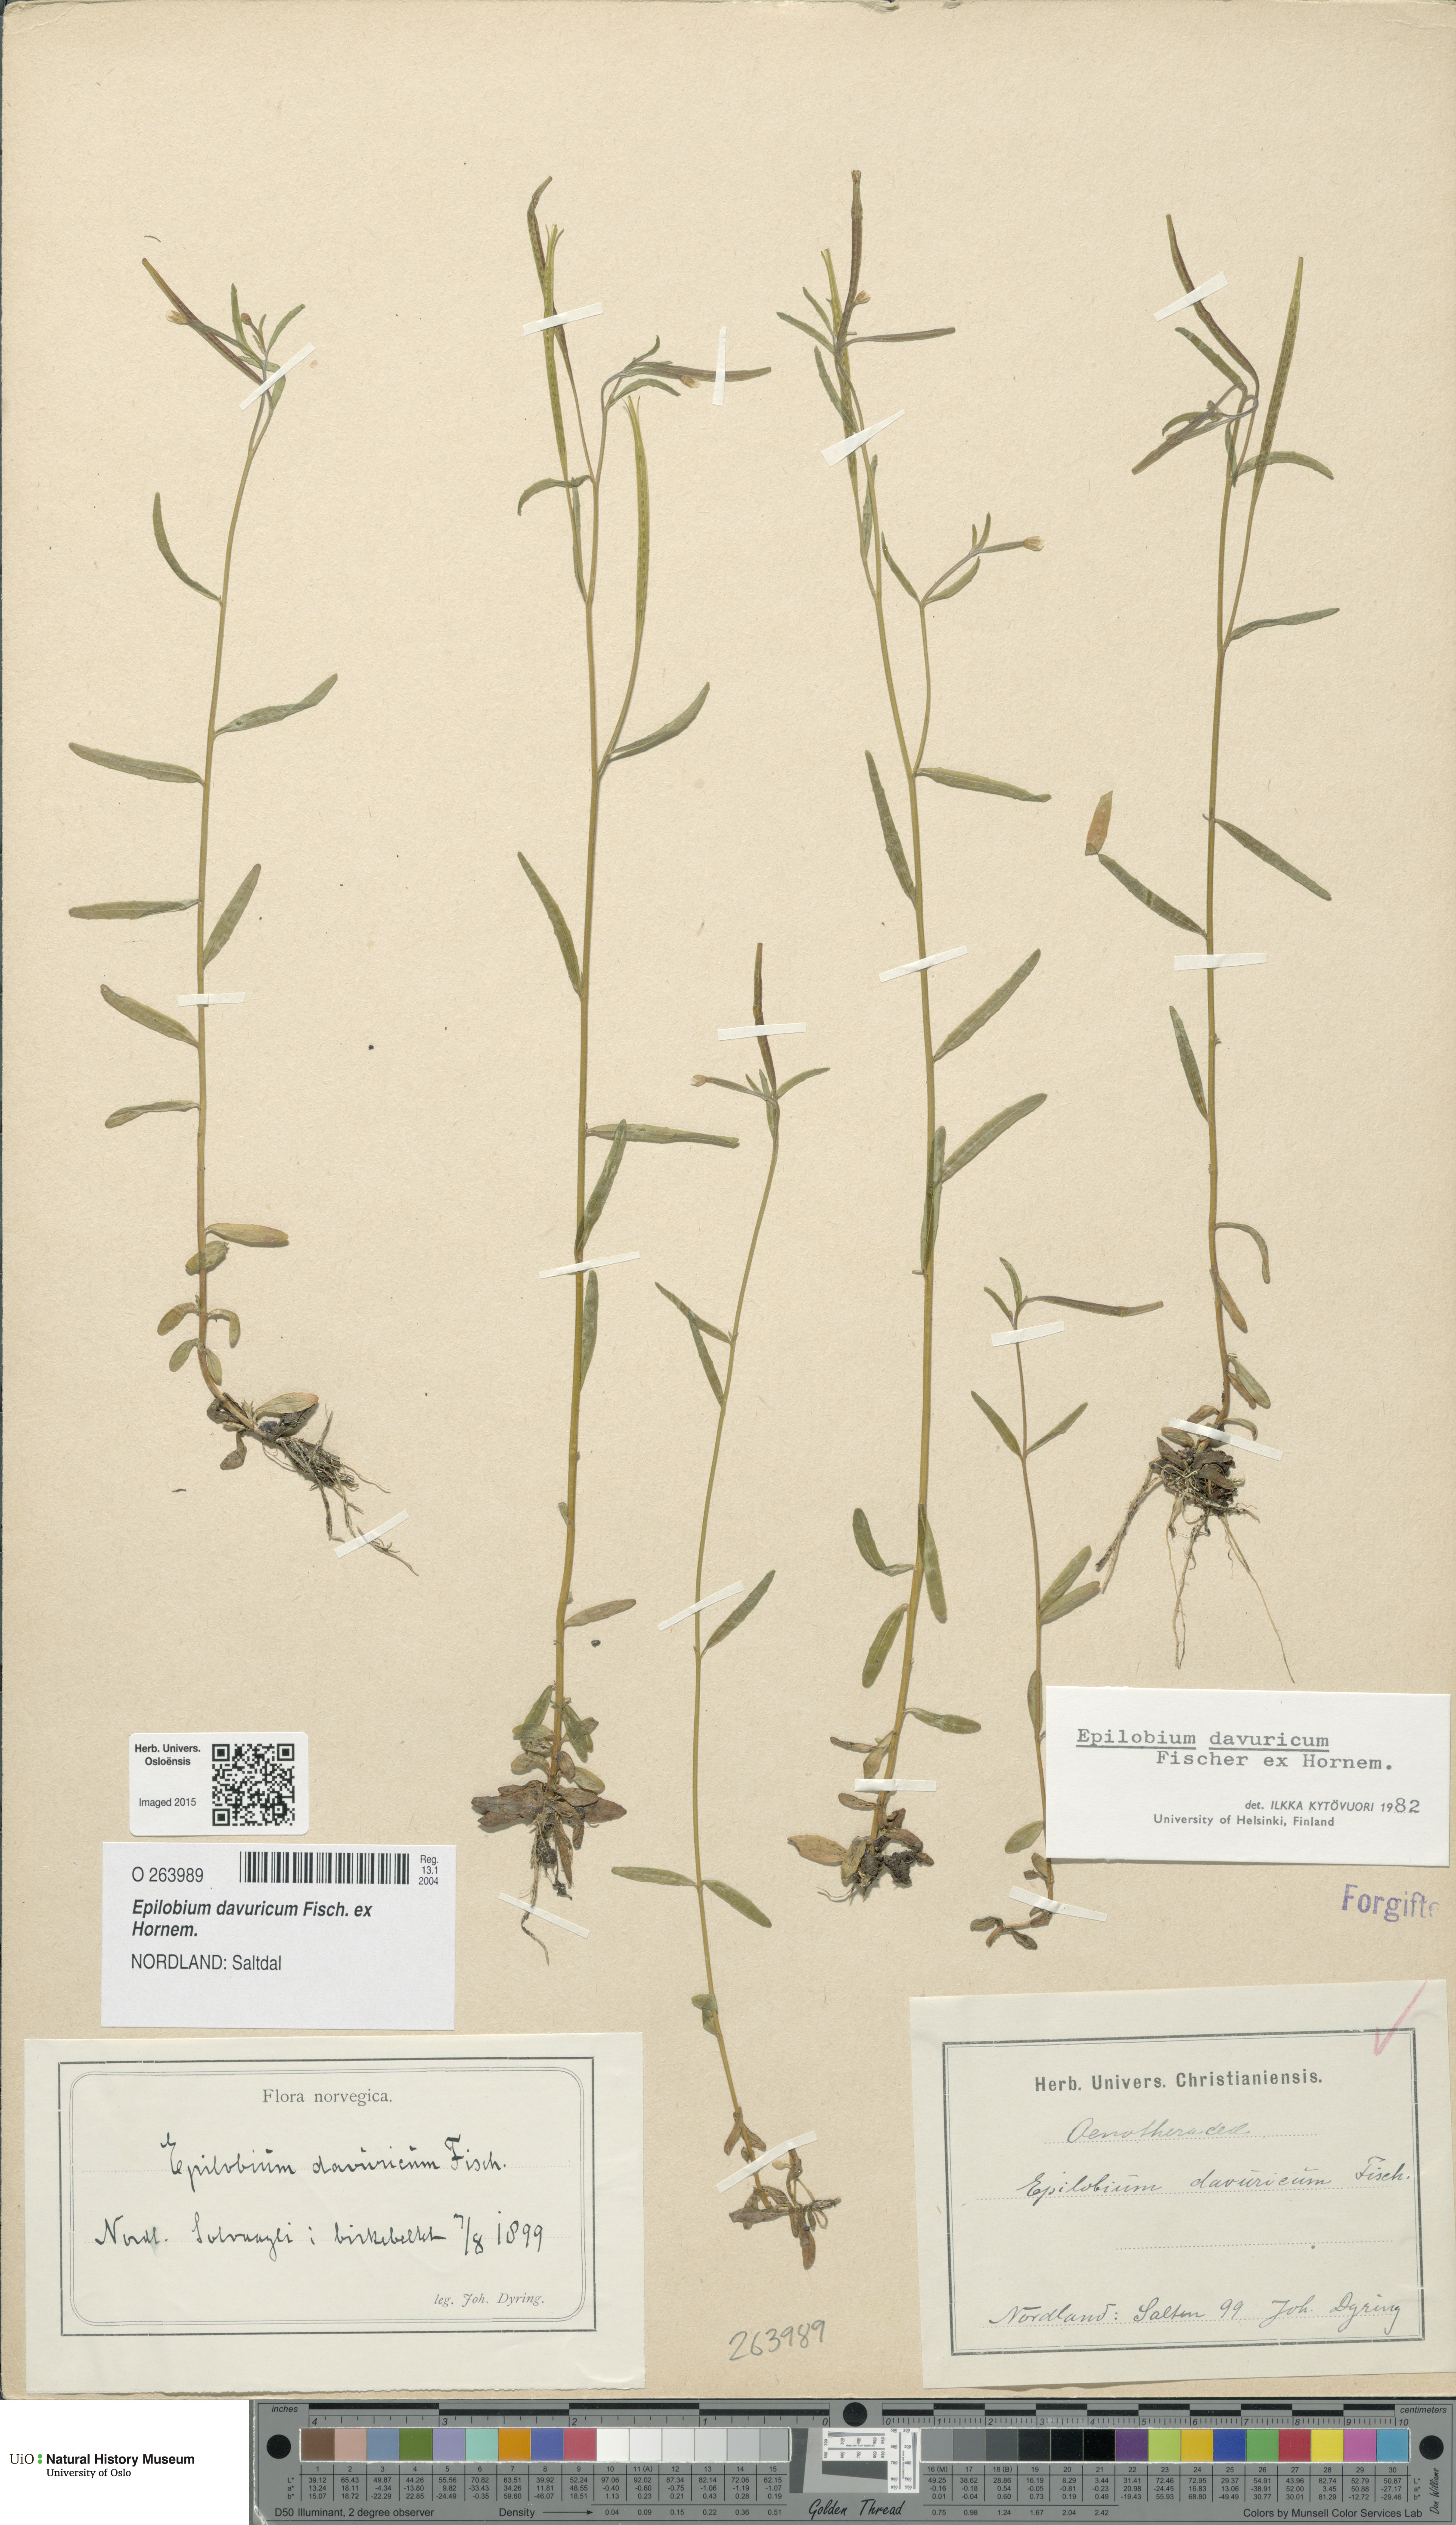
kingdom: Plantae
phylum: Tracheophyta
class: Magnoliopsida
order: Myrtales
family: Onagraceae
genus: Epilobium
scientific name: Epilobium davuricum
